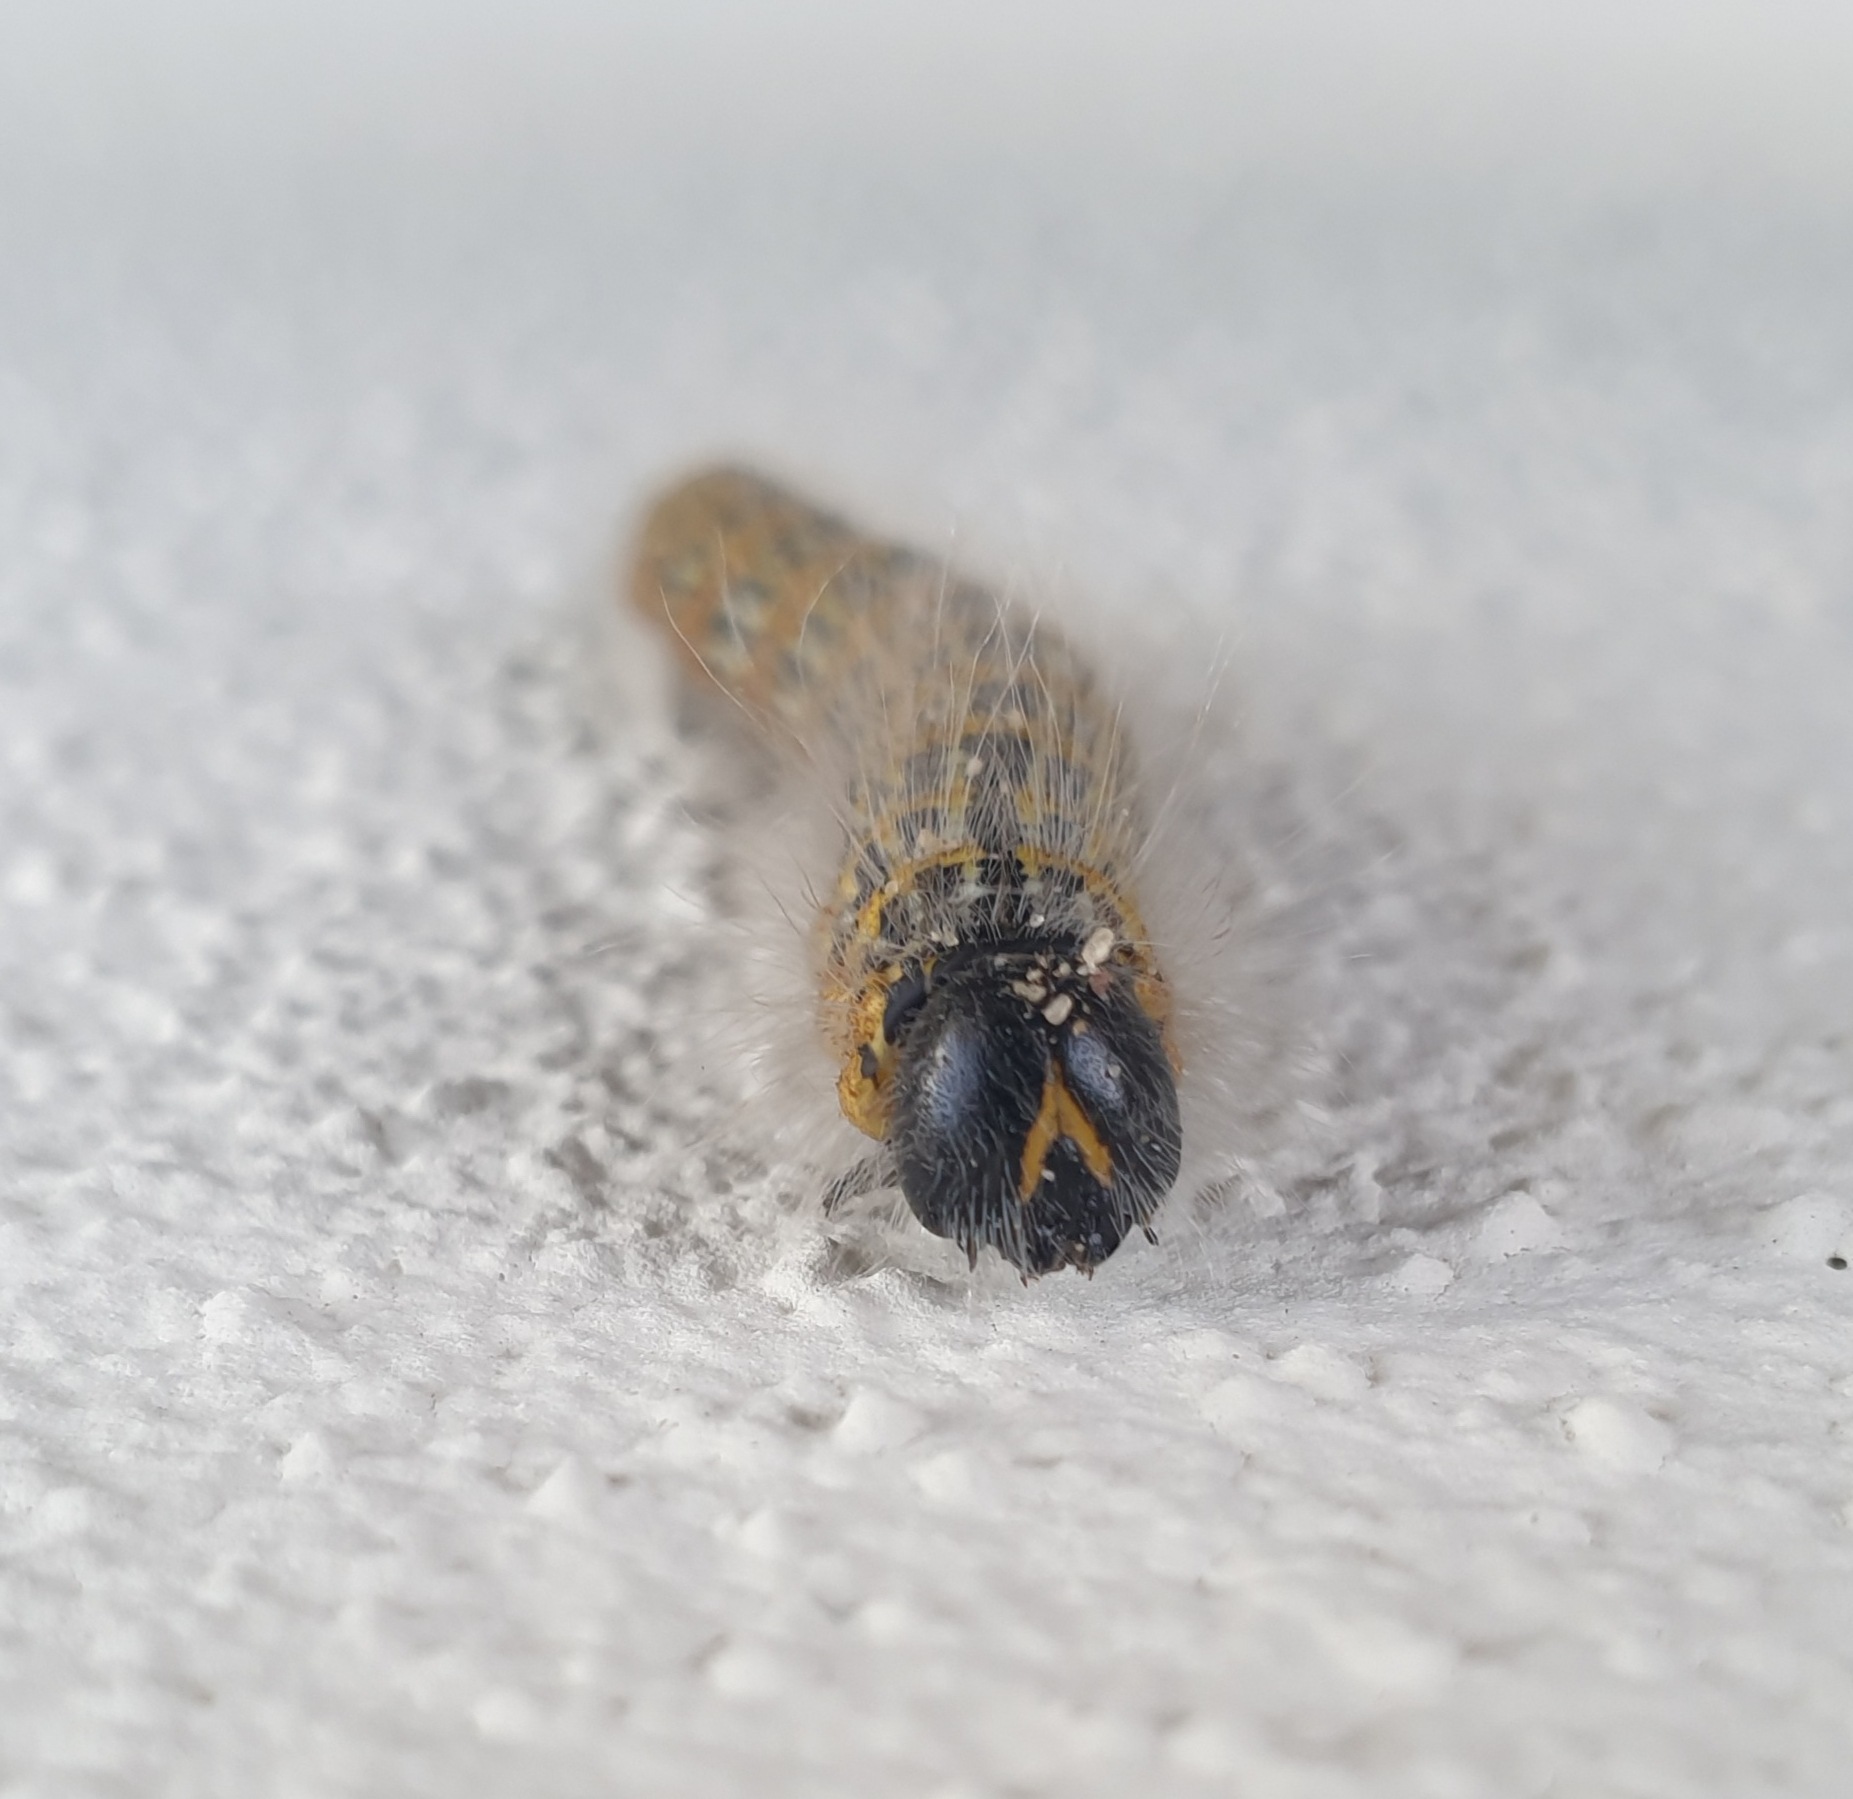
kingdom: Animalia
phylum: Arthropoda
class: Insecta
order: Lepidoptera
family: Notodontidae
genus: Phalera
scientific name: Phalera bucephala
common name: Måneplet
